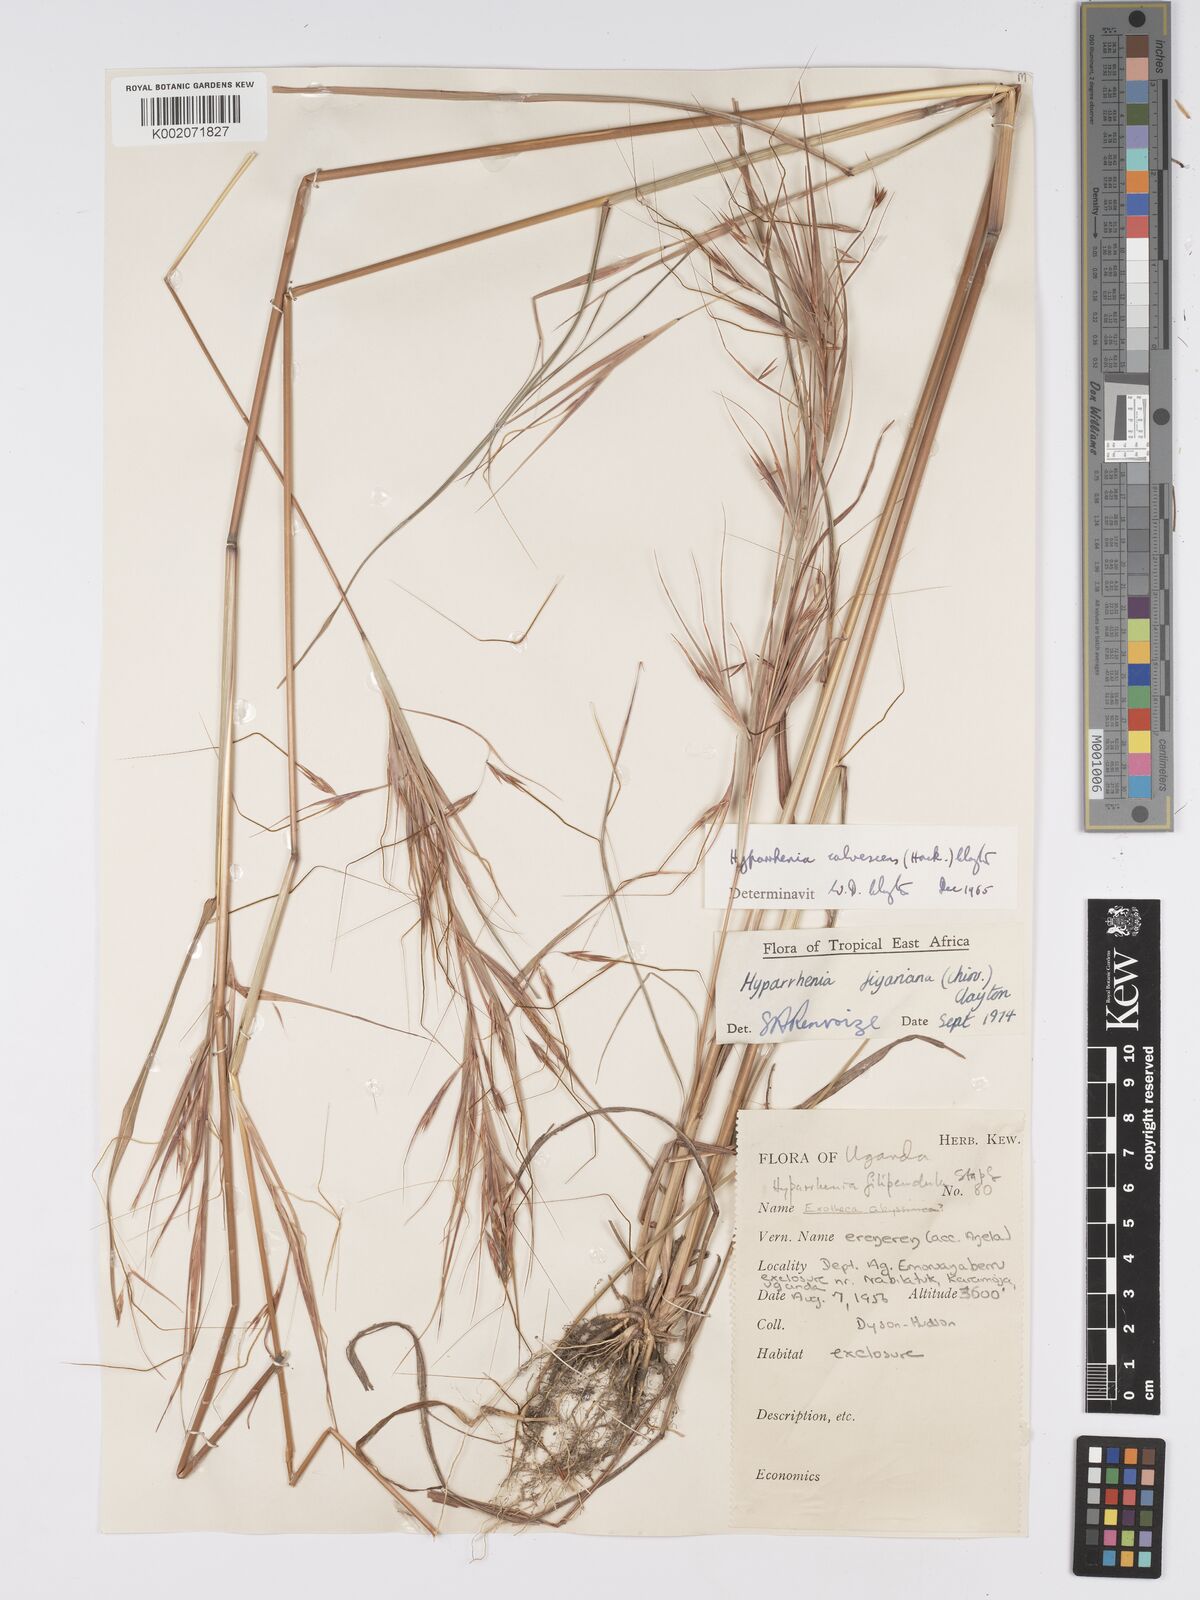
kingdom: Plantae
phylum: Tracheophyta
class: Liliopsida
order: Poales
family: Poaceae
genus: Hyparrhenia
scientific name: Hyparrhenia figariana
